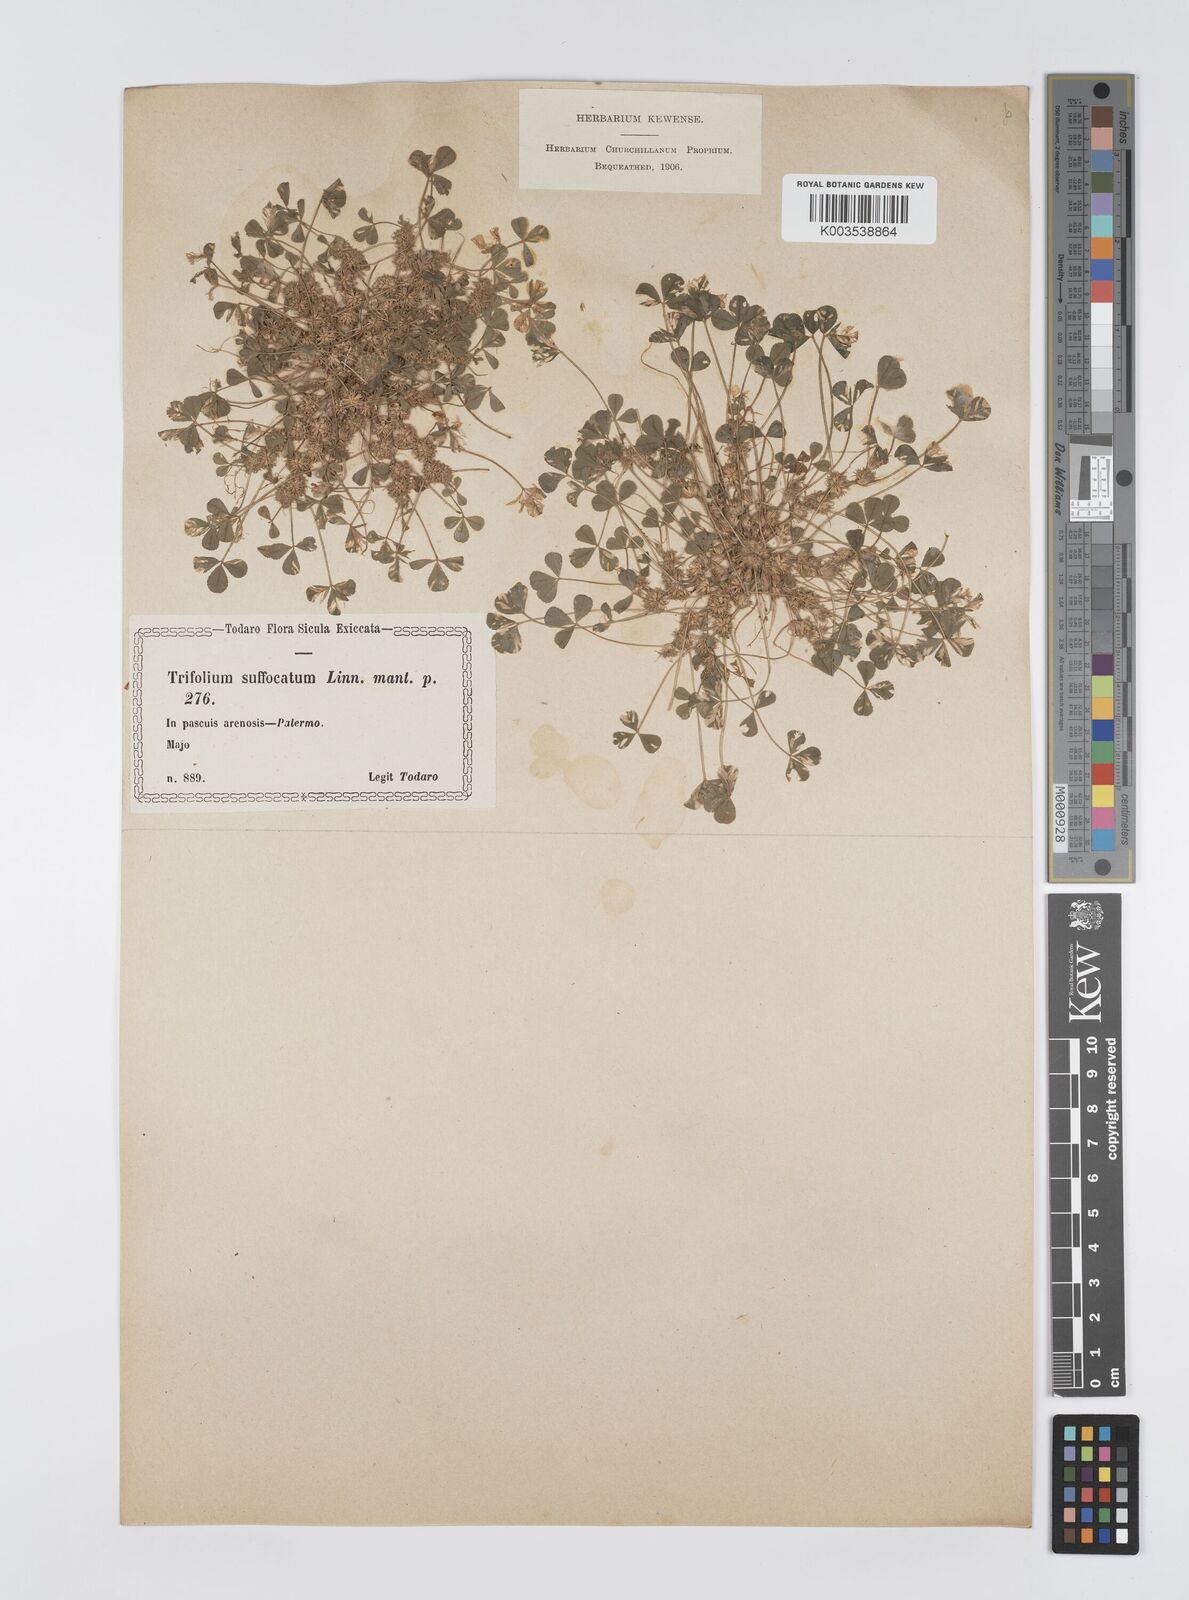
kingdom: Plantae
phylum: Tracheophyta
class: Magnoliopsida
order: Fabales
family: Fabaceae
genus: Trifolium
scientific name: Trifolium suffocatum
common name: Suffocated clover
